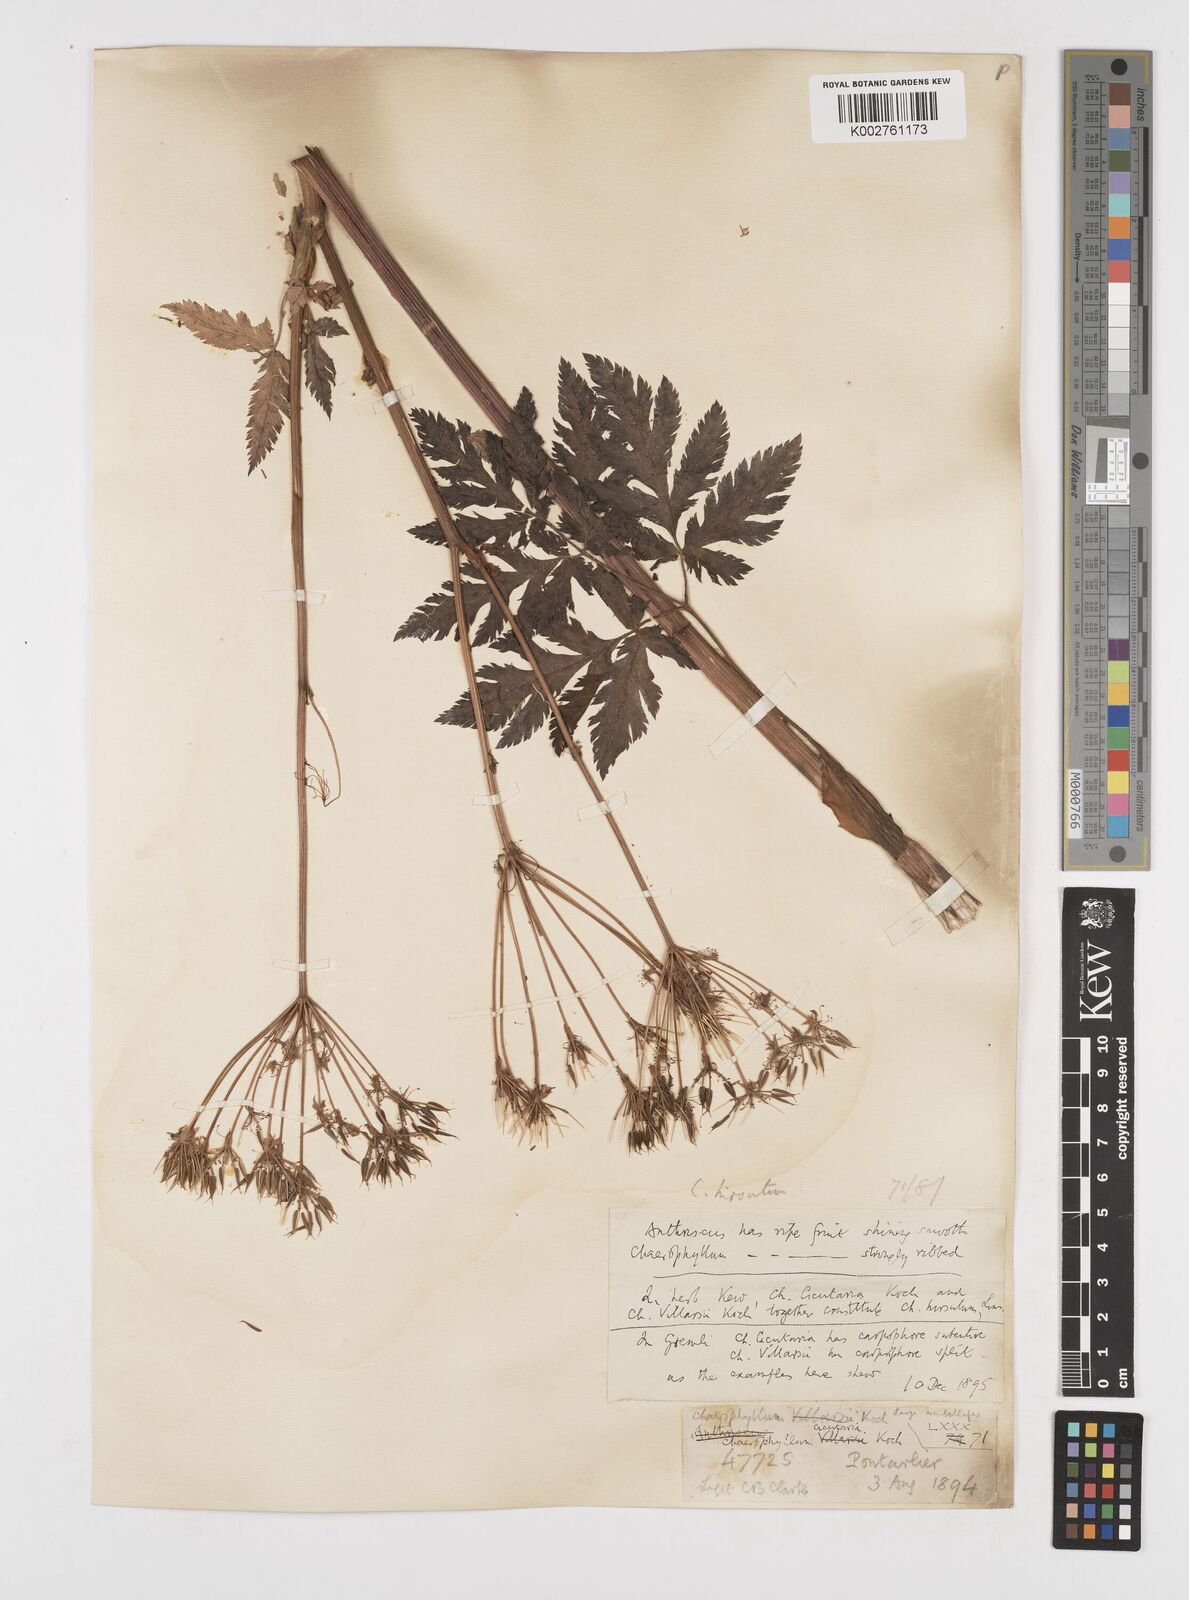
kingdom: Plantae
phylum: Tracheophyta
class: Magnoliopsida
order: Apiales
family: Apiaceae
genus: Chaerophyllum
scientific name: Chaerophyllum hirsutum
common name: Hairy chervil
